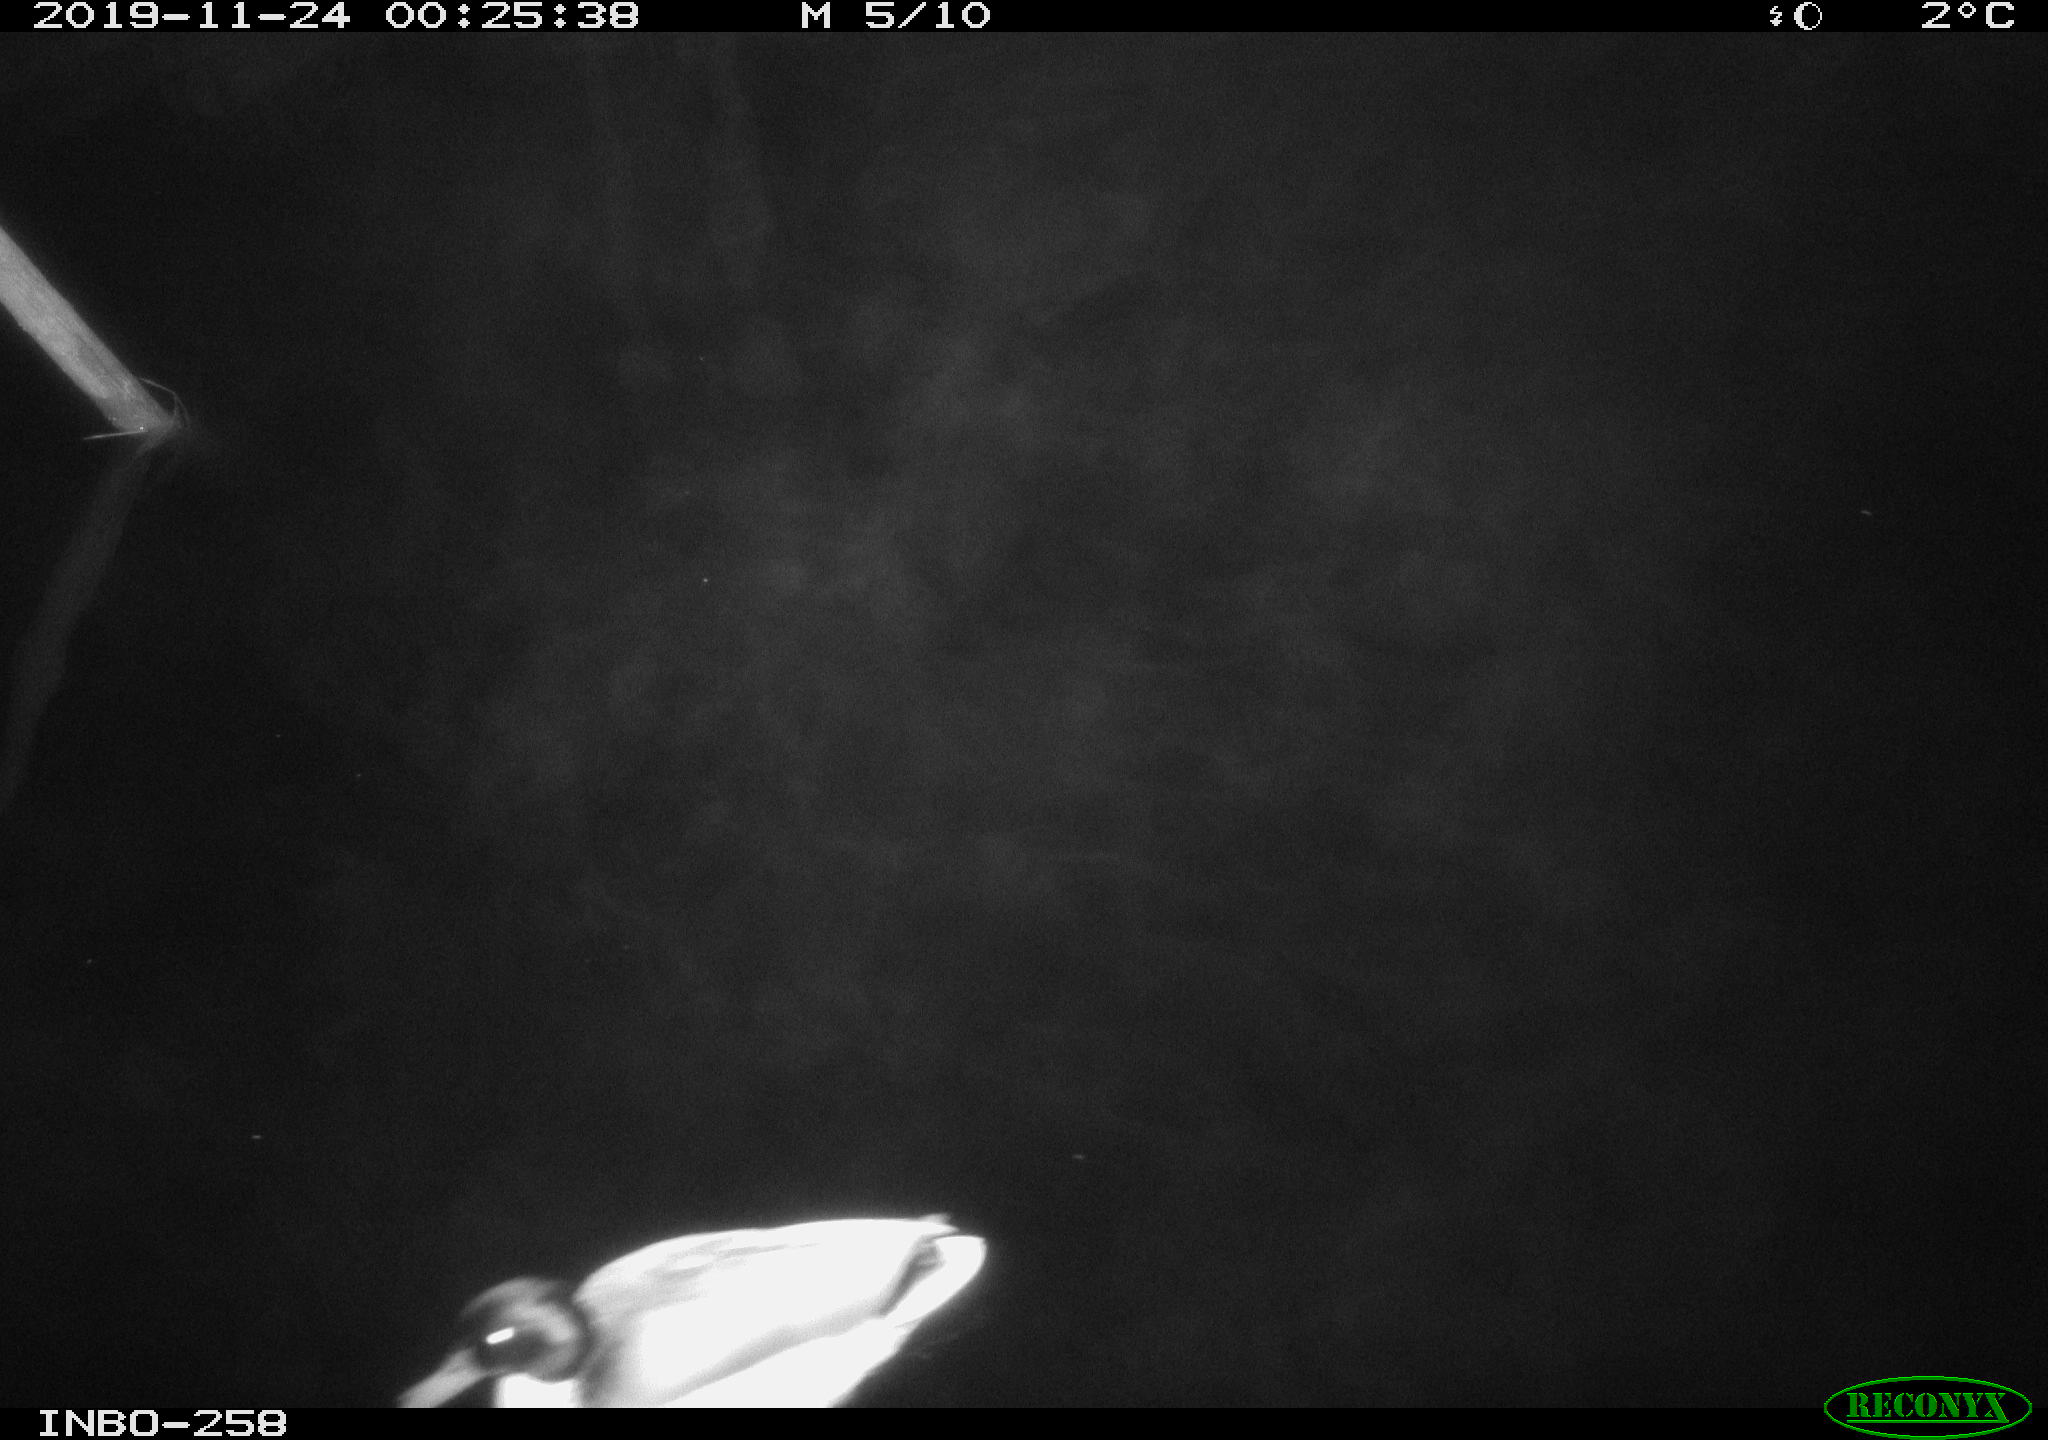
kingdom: Animalia
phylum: Chordata
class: Aves
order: Anseriformes
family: Anatidae
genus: Anas
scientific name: Anas platyrhynchos
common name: Mallard
